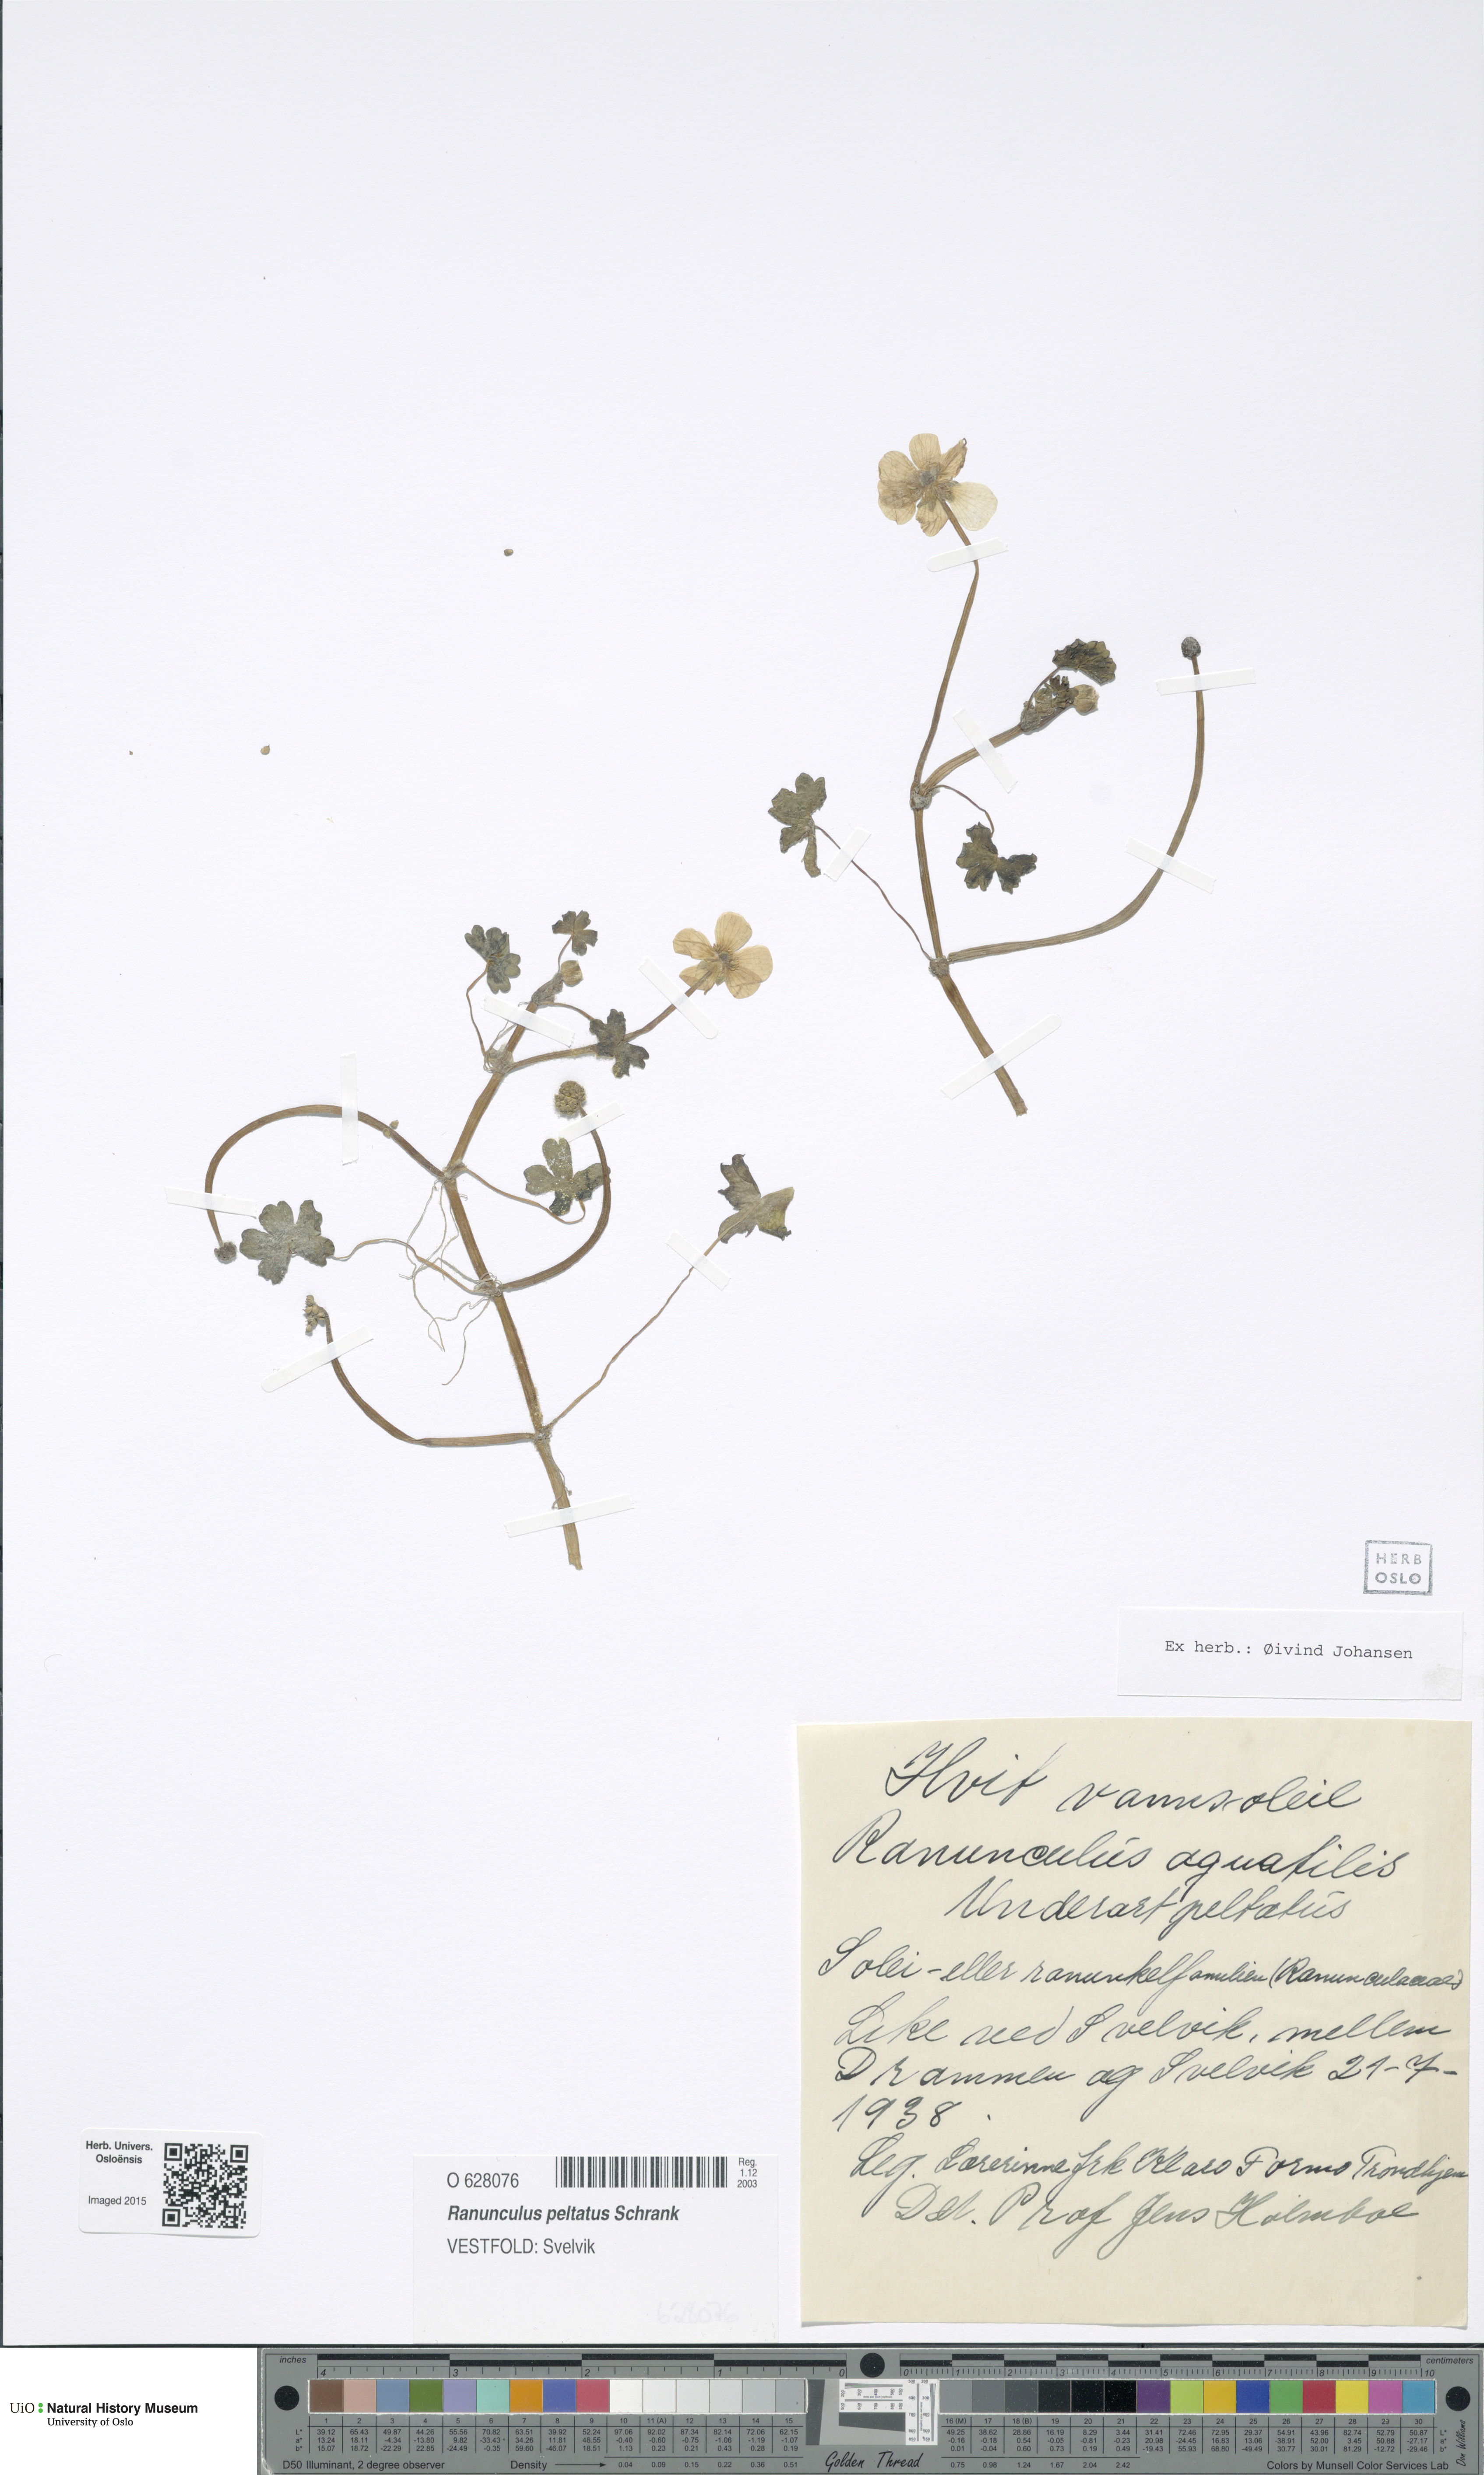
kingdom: Plantae
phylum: Tracheophyta
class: Magnoliopsida
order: Ranunculales
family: Ranunculaceae
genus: Ranunculus
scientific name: Ranunculus peltatus
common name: Pond water-crowfoot
